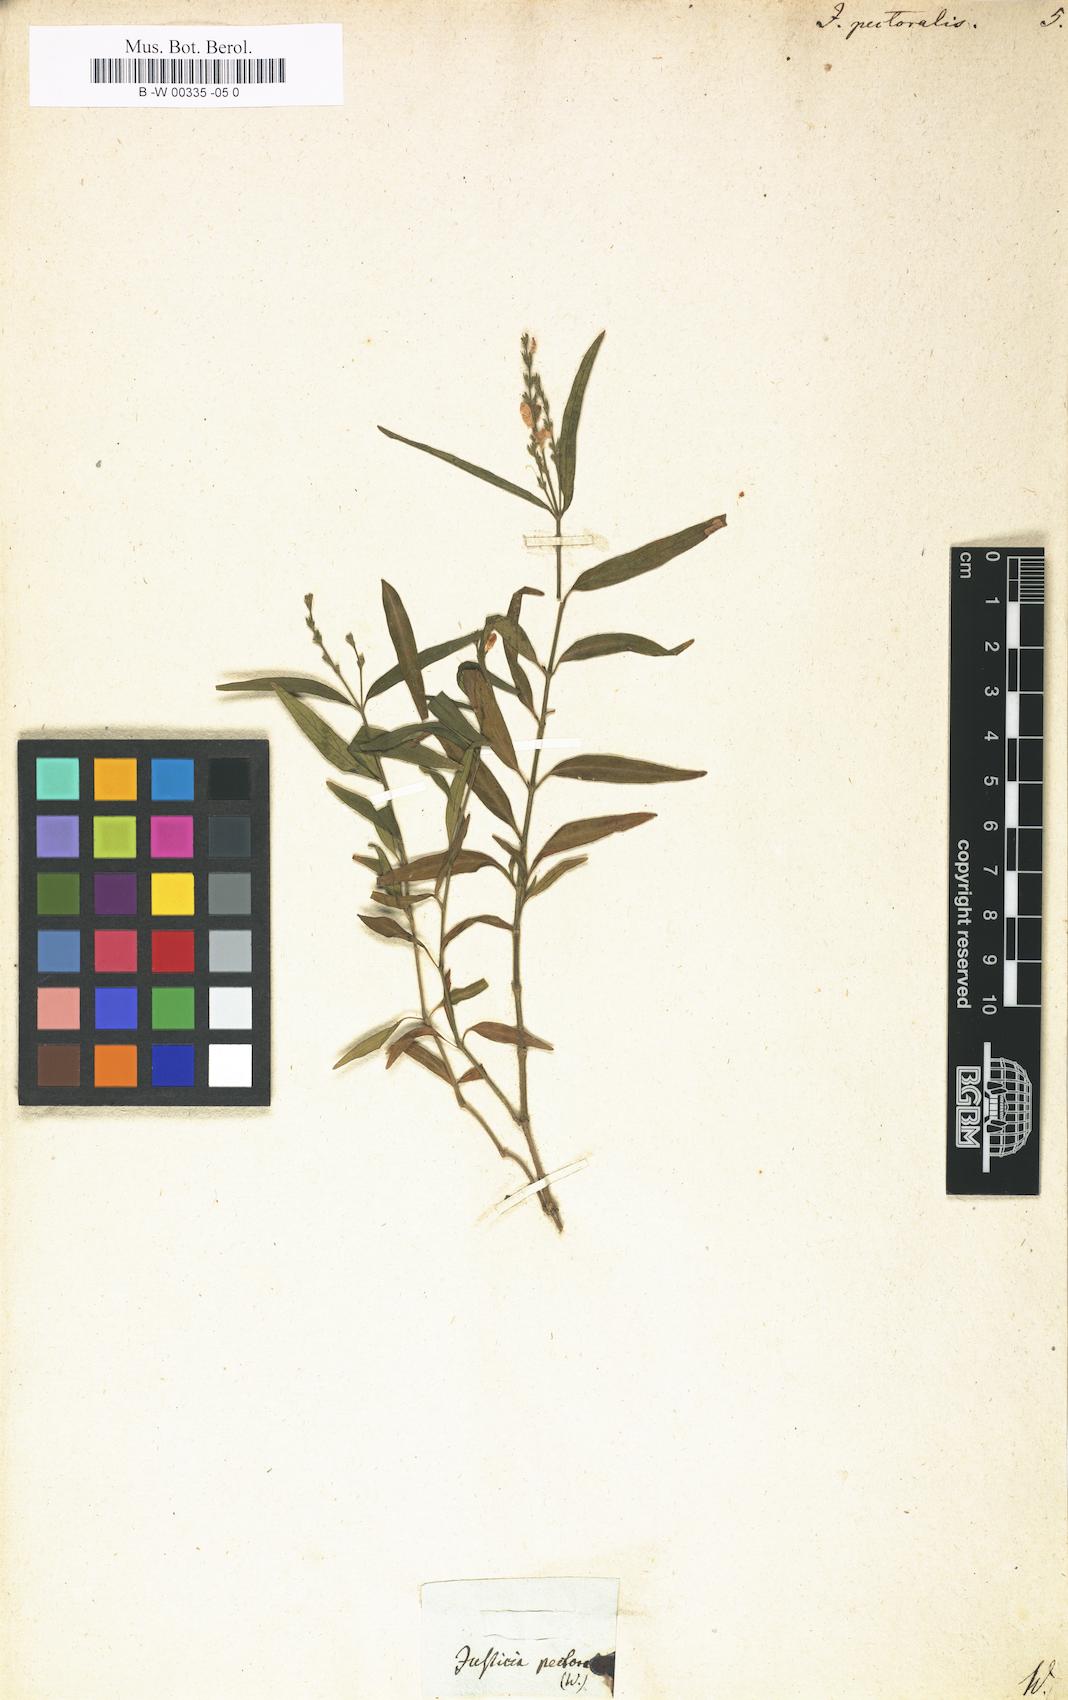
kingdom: Plantae
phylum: Tracheophyta
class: Magnoliopsida
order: Lamiales
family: Acanthaceae
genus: Dianthera
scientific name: Dianthera pectoralis
